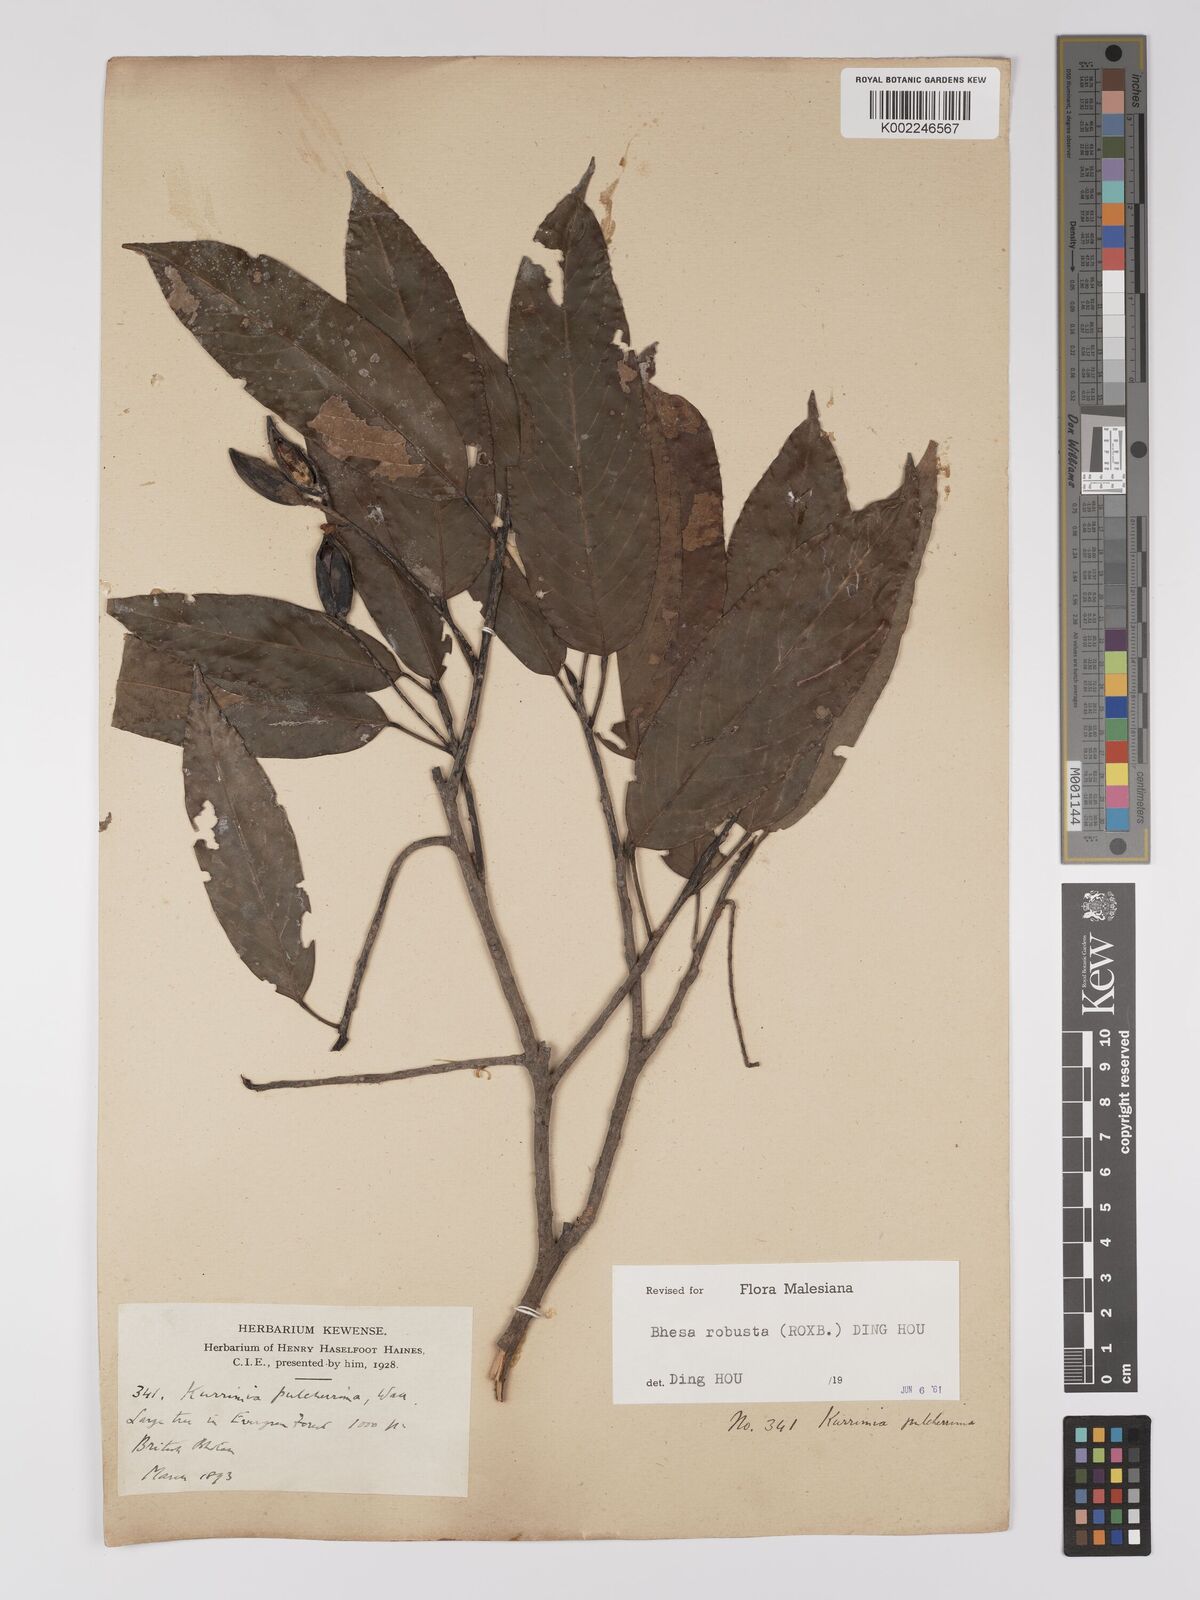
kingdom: Plantae
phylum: Tracheophyta
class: Magnoliopsida
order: Malpighiales
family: Centroplacaceae
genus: Bhesa
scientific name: Bhesa robusta
